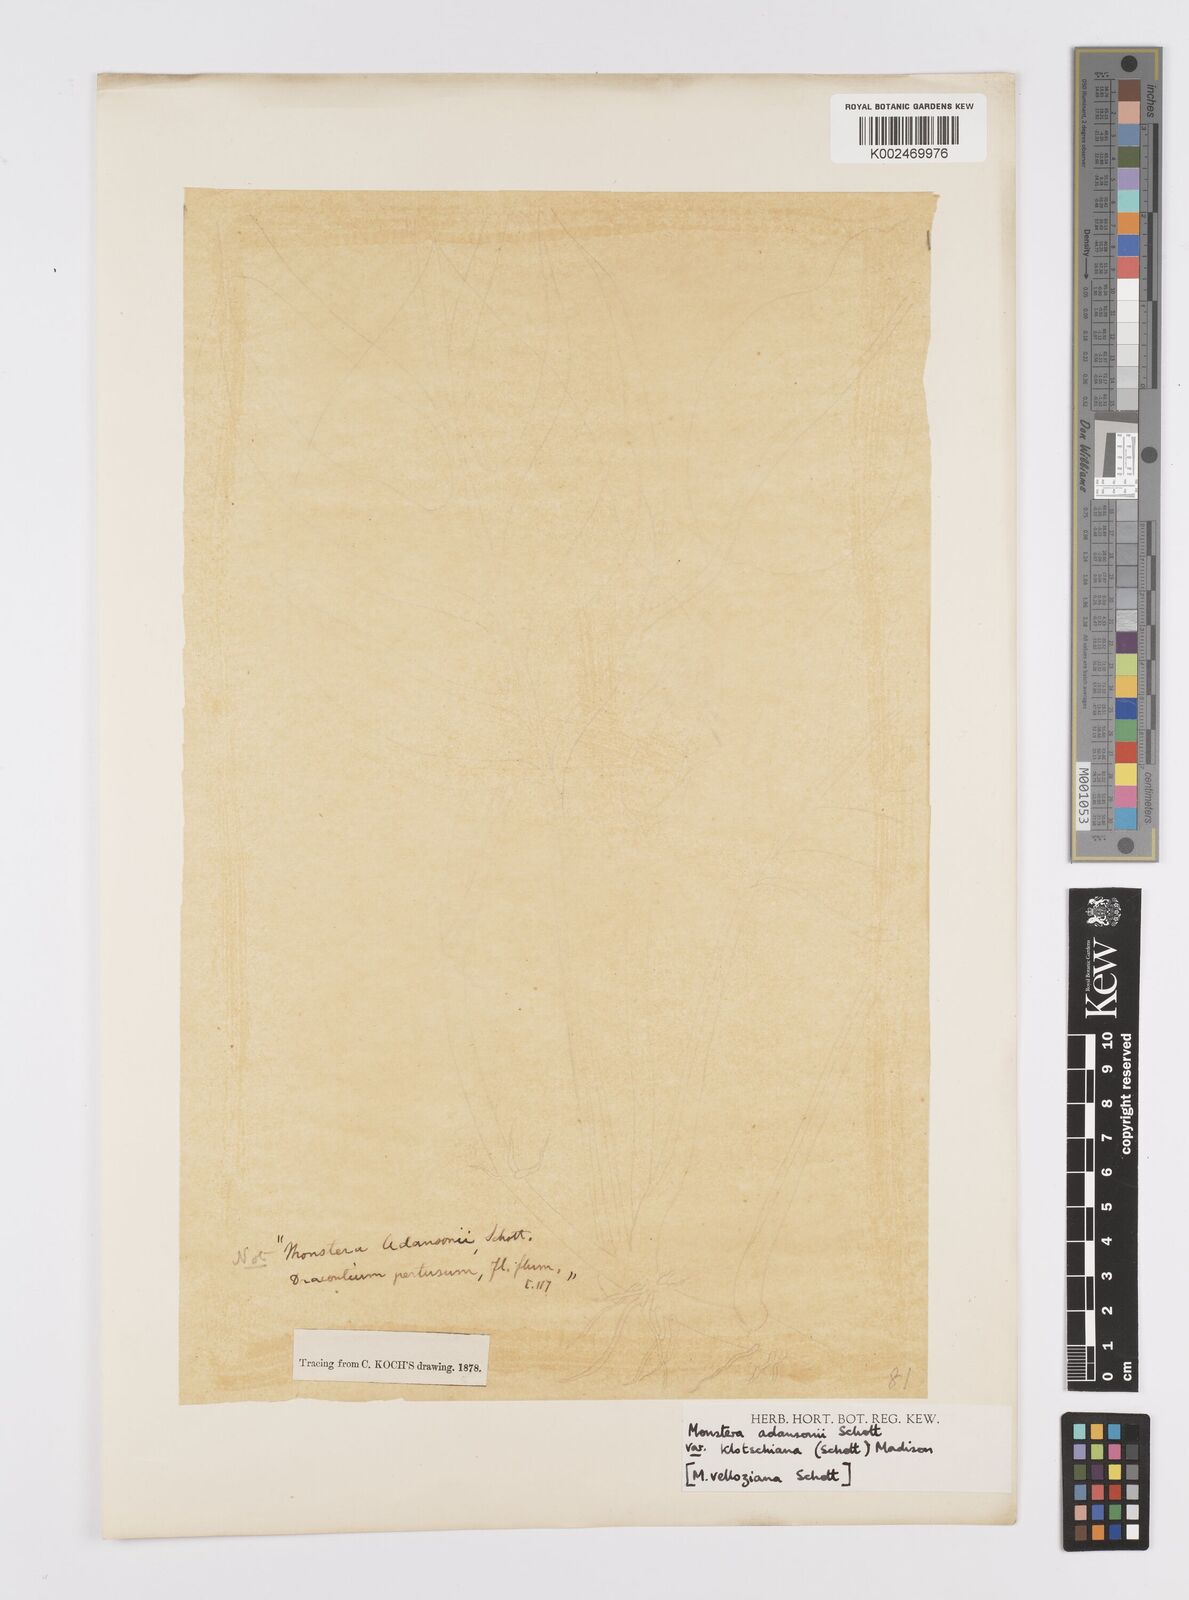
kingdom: Plantae
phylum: Tracheophyta
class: Liliopsida
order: Alismatales
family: Araceae
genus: Monstera
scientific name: Monstera adansonii
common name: Tarovine
